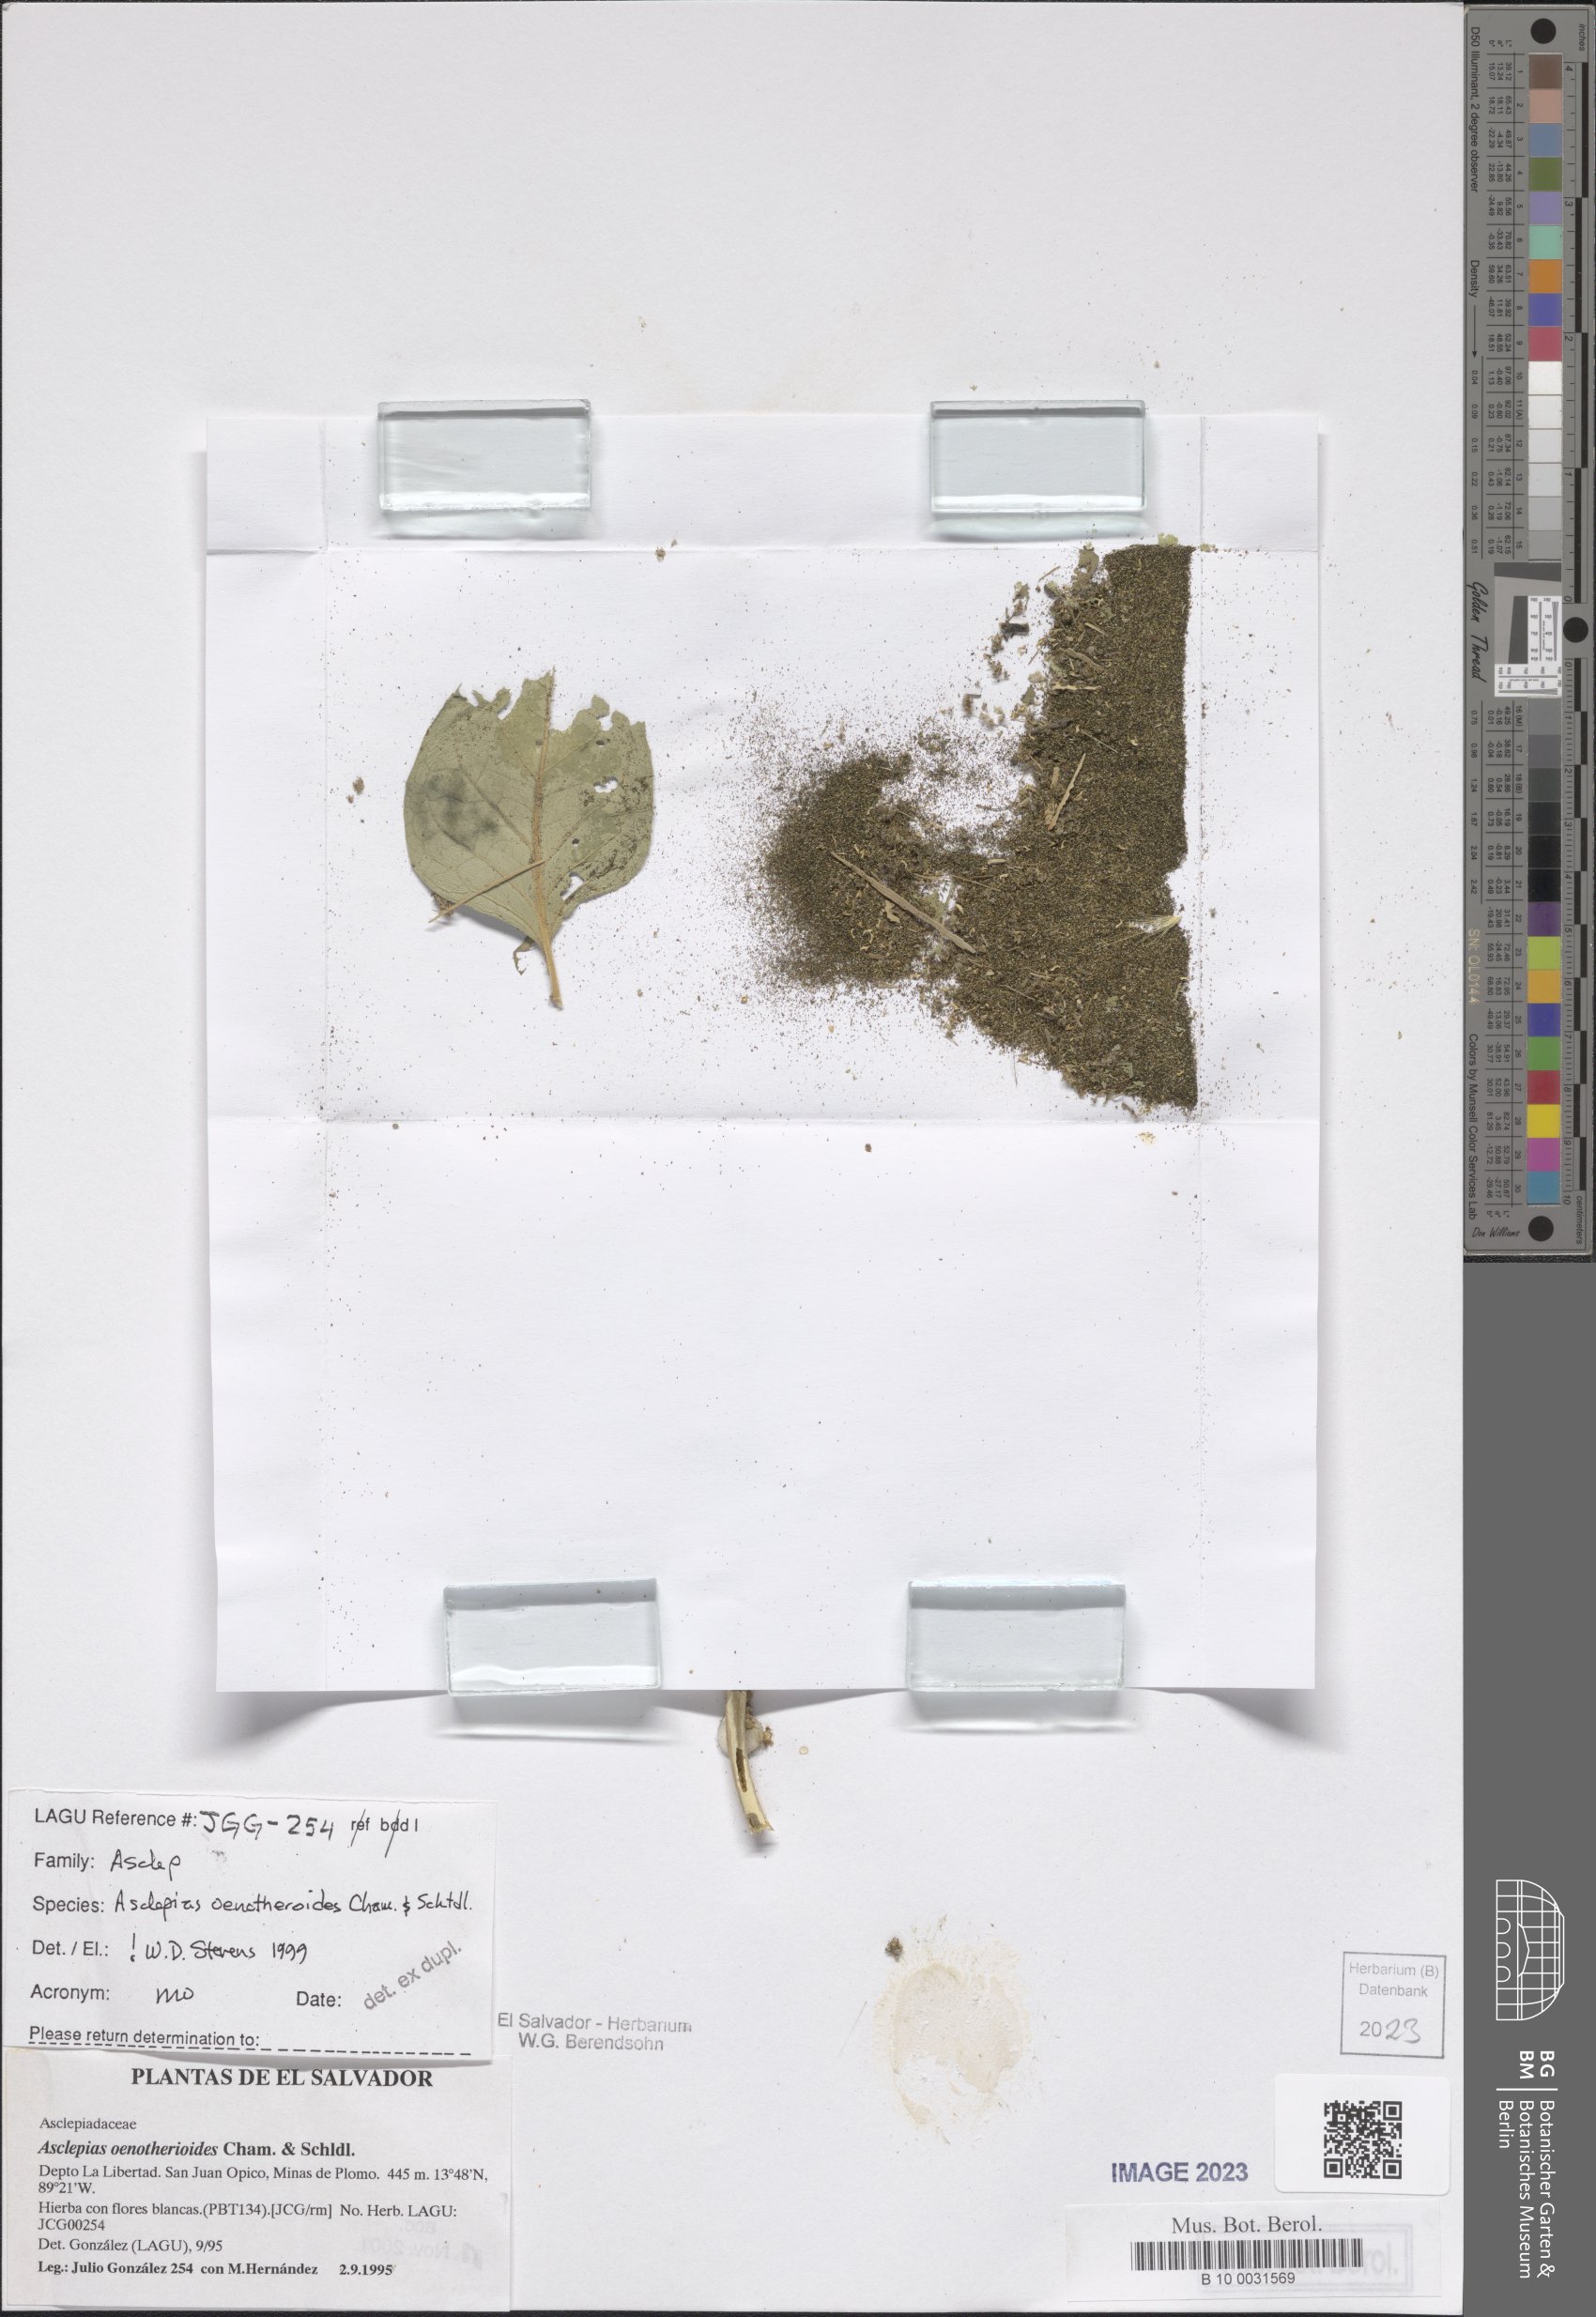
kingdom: Plantae
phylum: Tracheophyta
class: Magnoliopsida
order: Gentianales
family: Apocynaceae
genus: Asclepias
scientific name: Asclepias oenotheroides
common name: Zizotes milkweed
